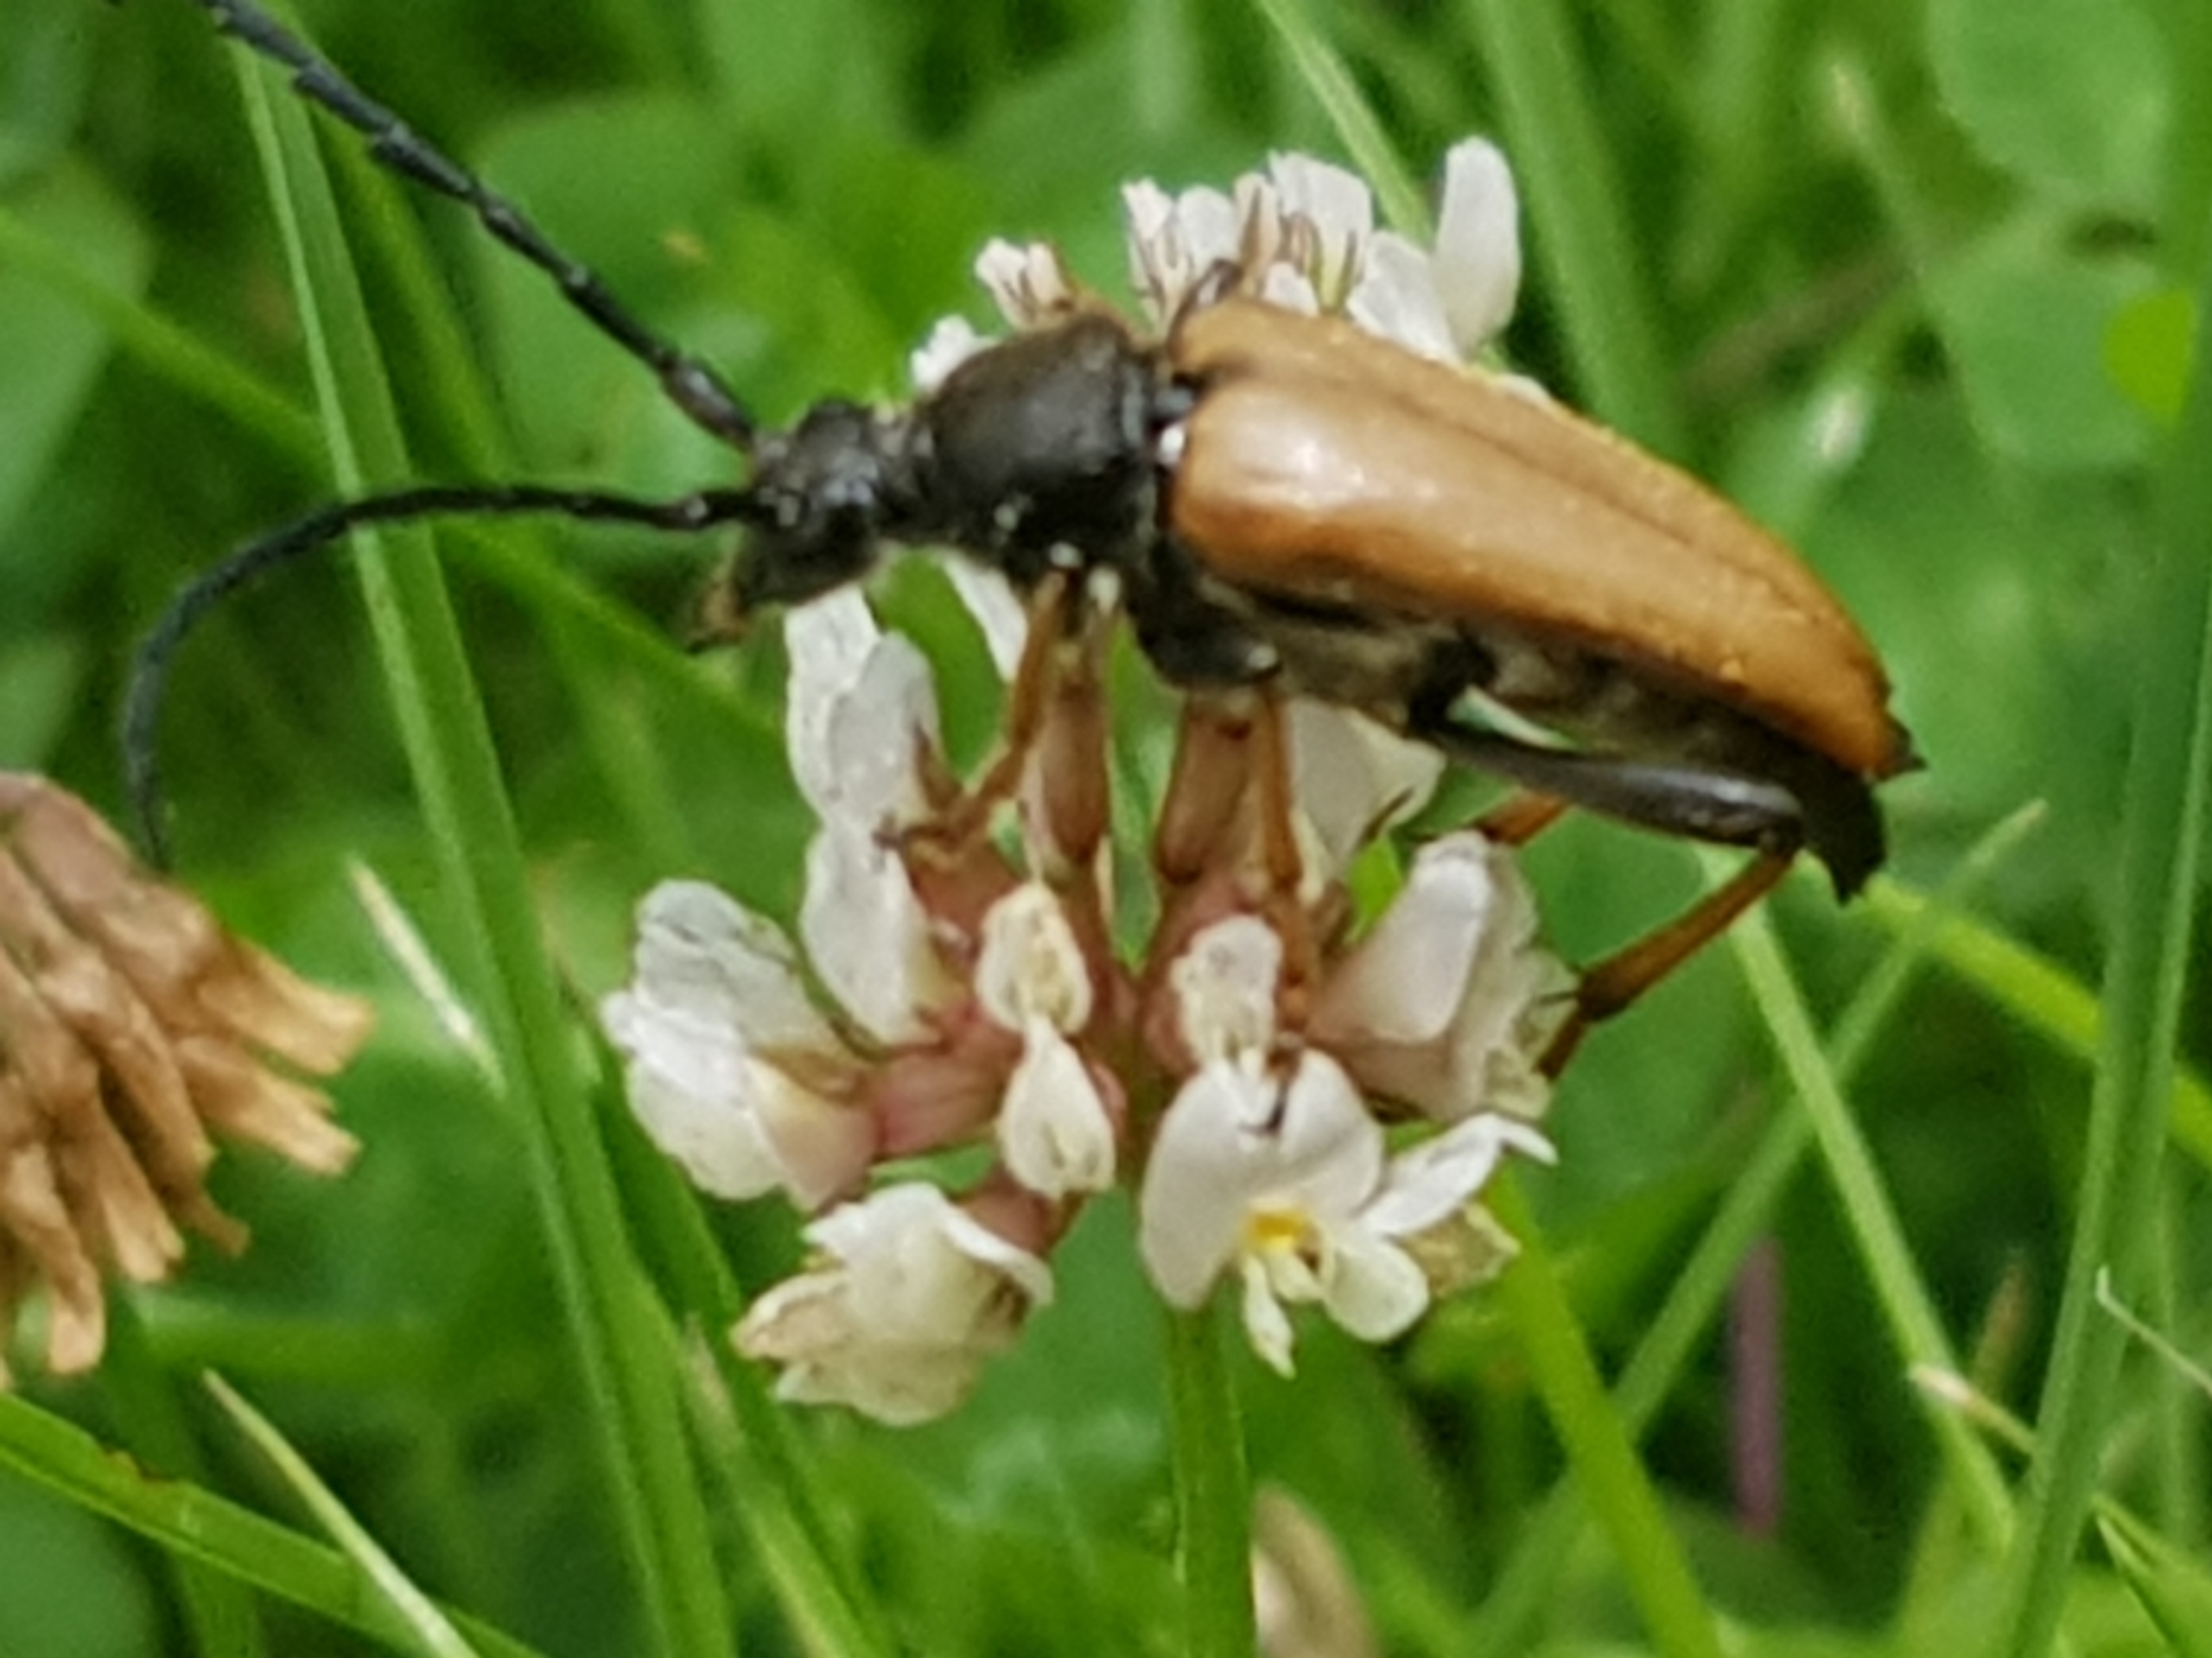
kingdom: Animalia
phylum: Arthropoda
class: Insecta
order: Coleoptera
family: Cerambycidae
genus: Stictoleptura
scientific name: Stictoleptura rubra
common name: Rød blomsterbuk
